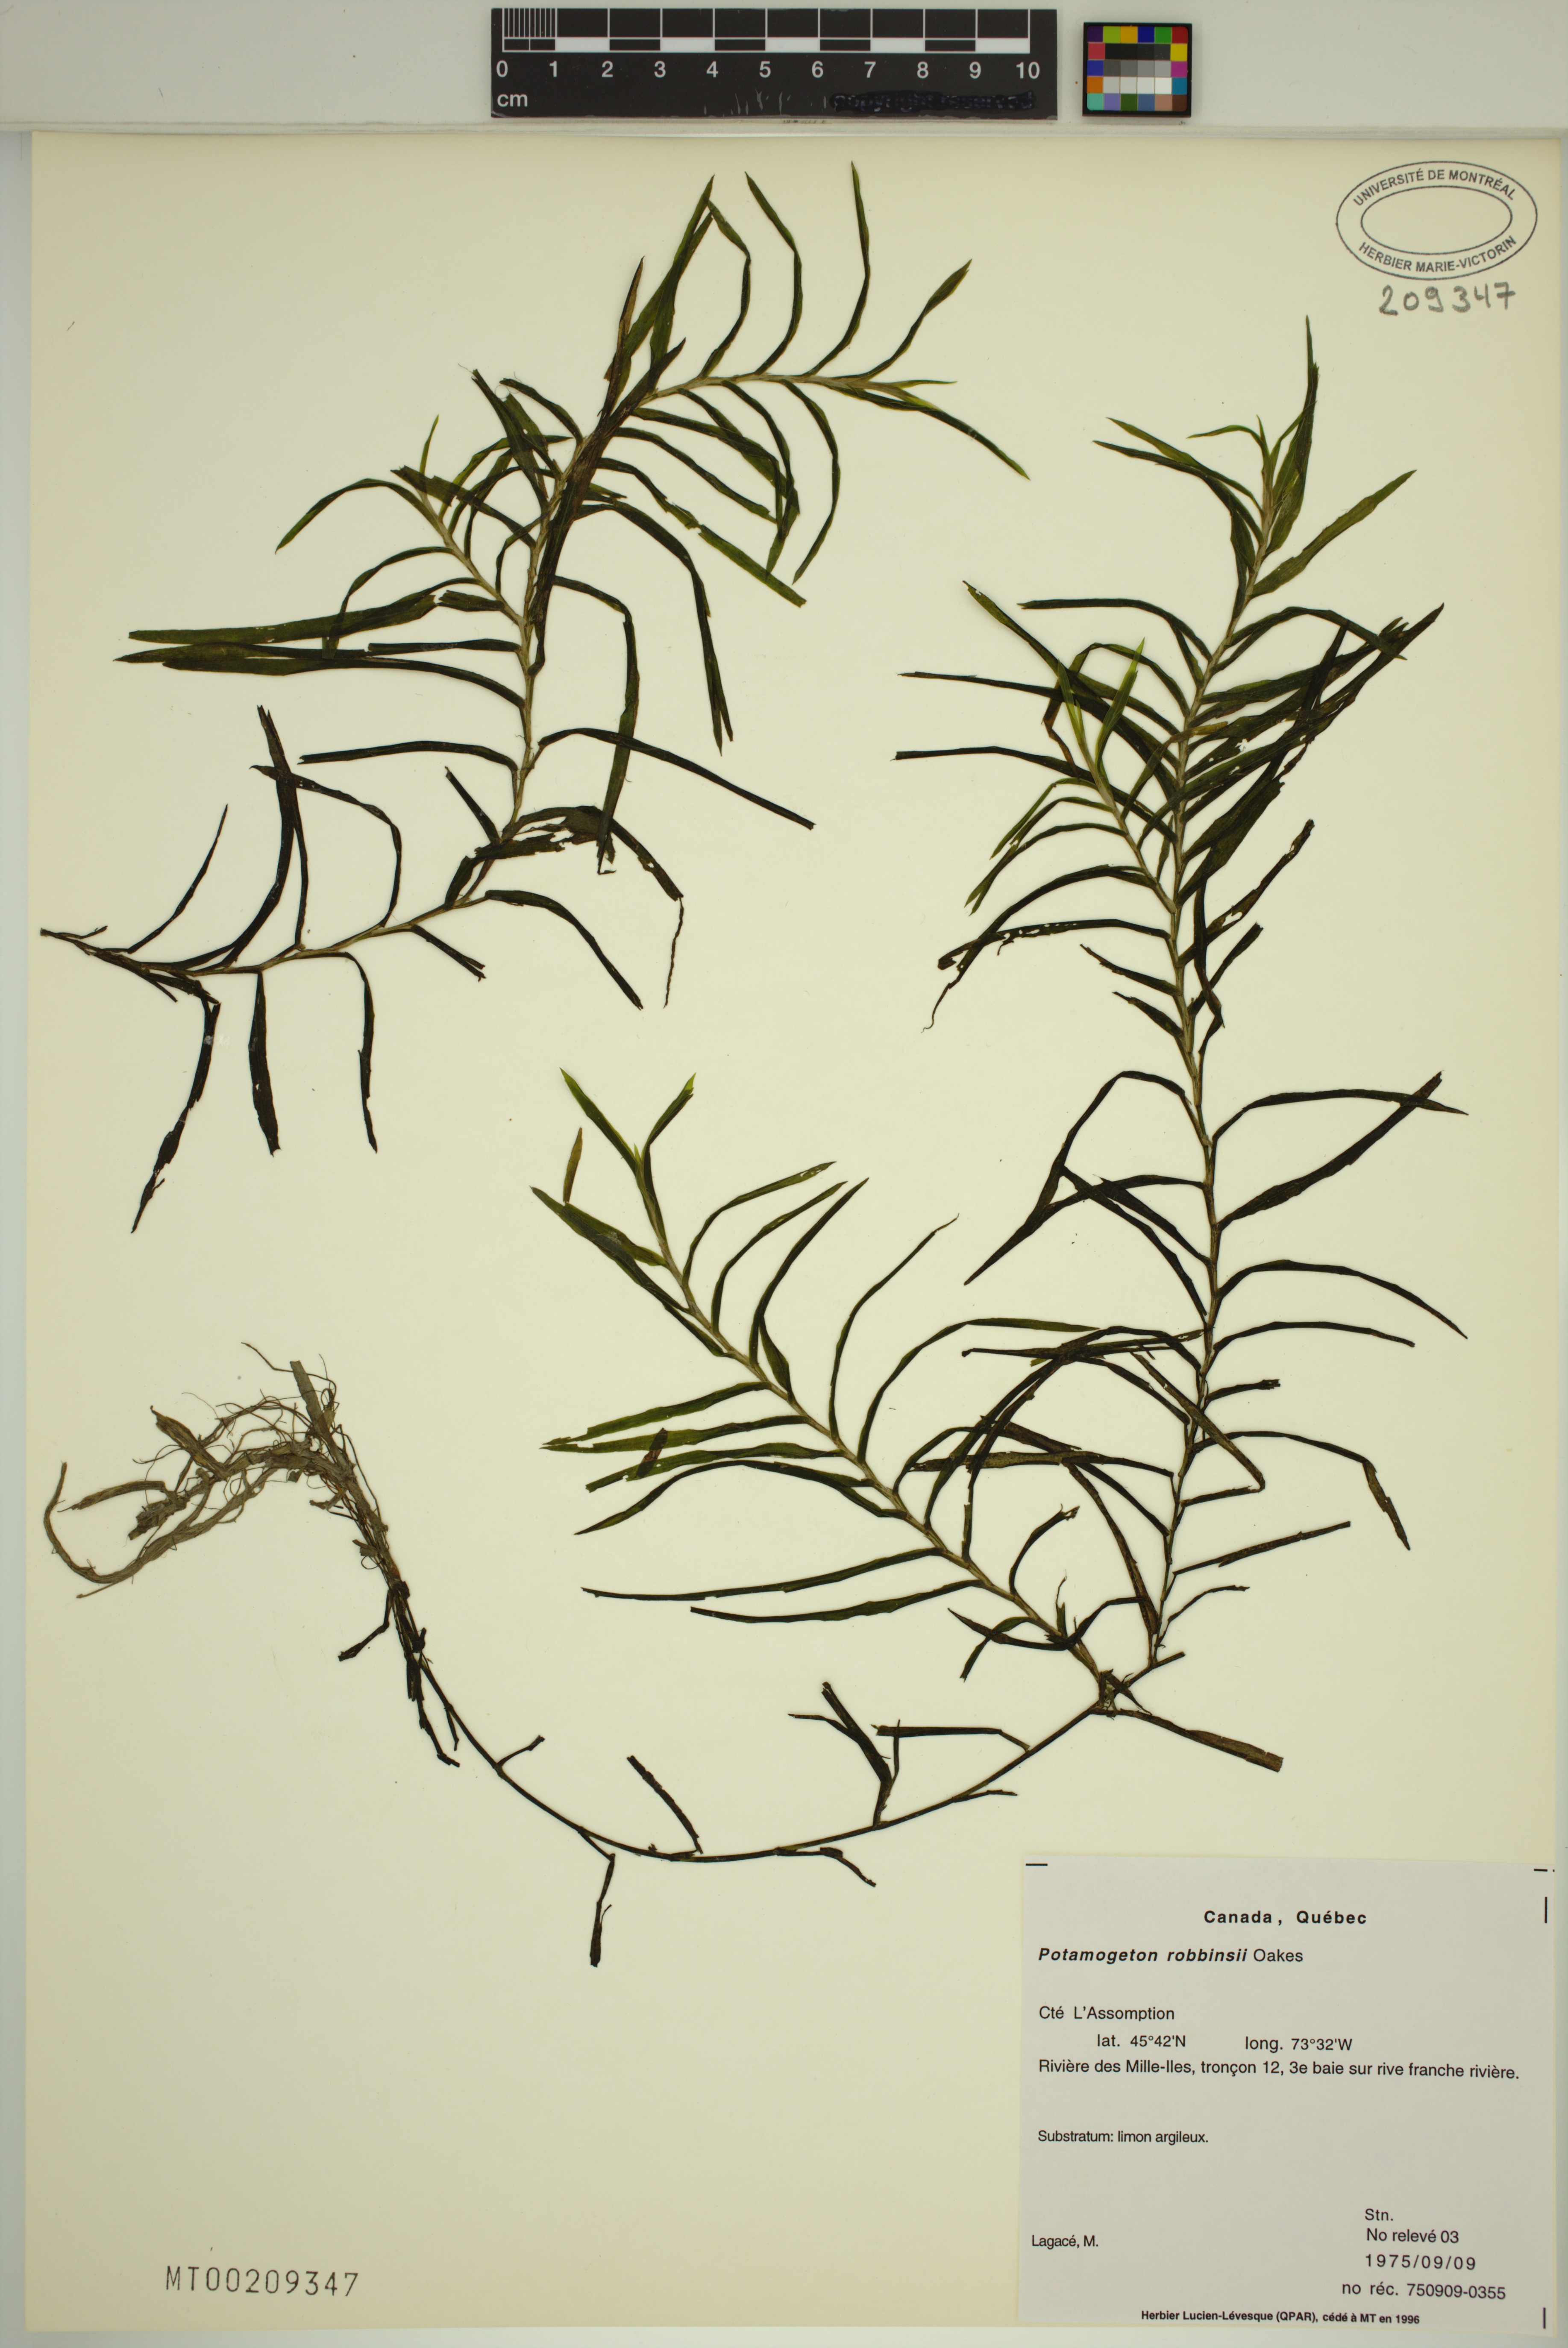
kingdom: Plantae
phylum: Tracheophyta
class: Liliopsida
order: Alismatales
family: Potamogetonaceae
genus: Potamogeton
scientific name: Potamogeton robbinsii
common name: Fern pondweed
